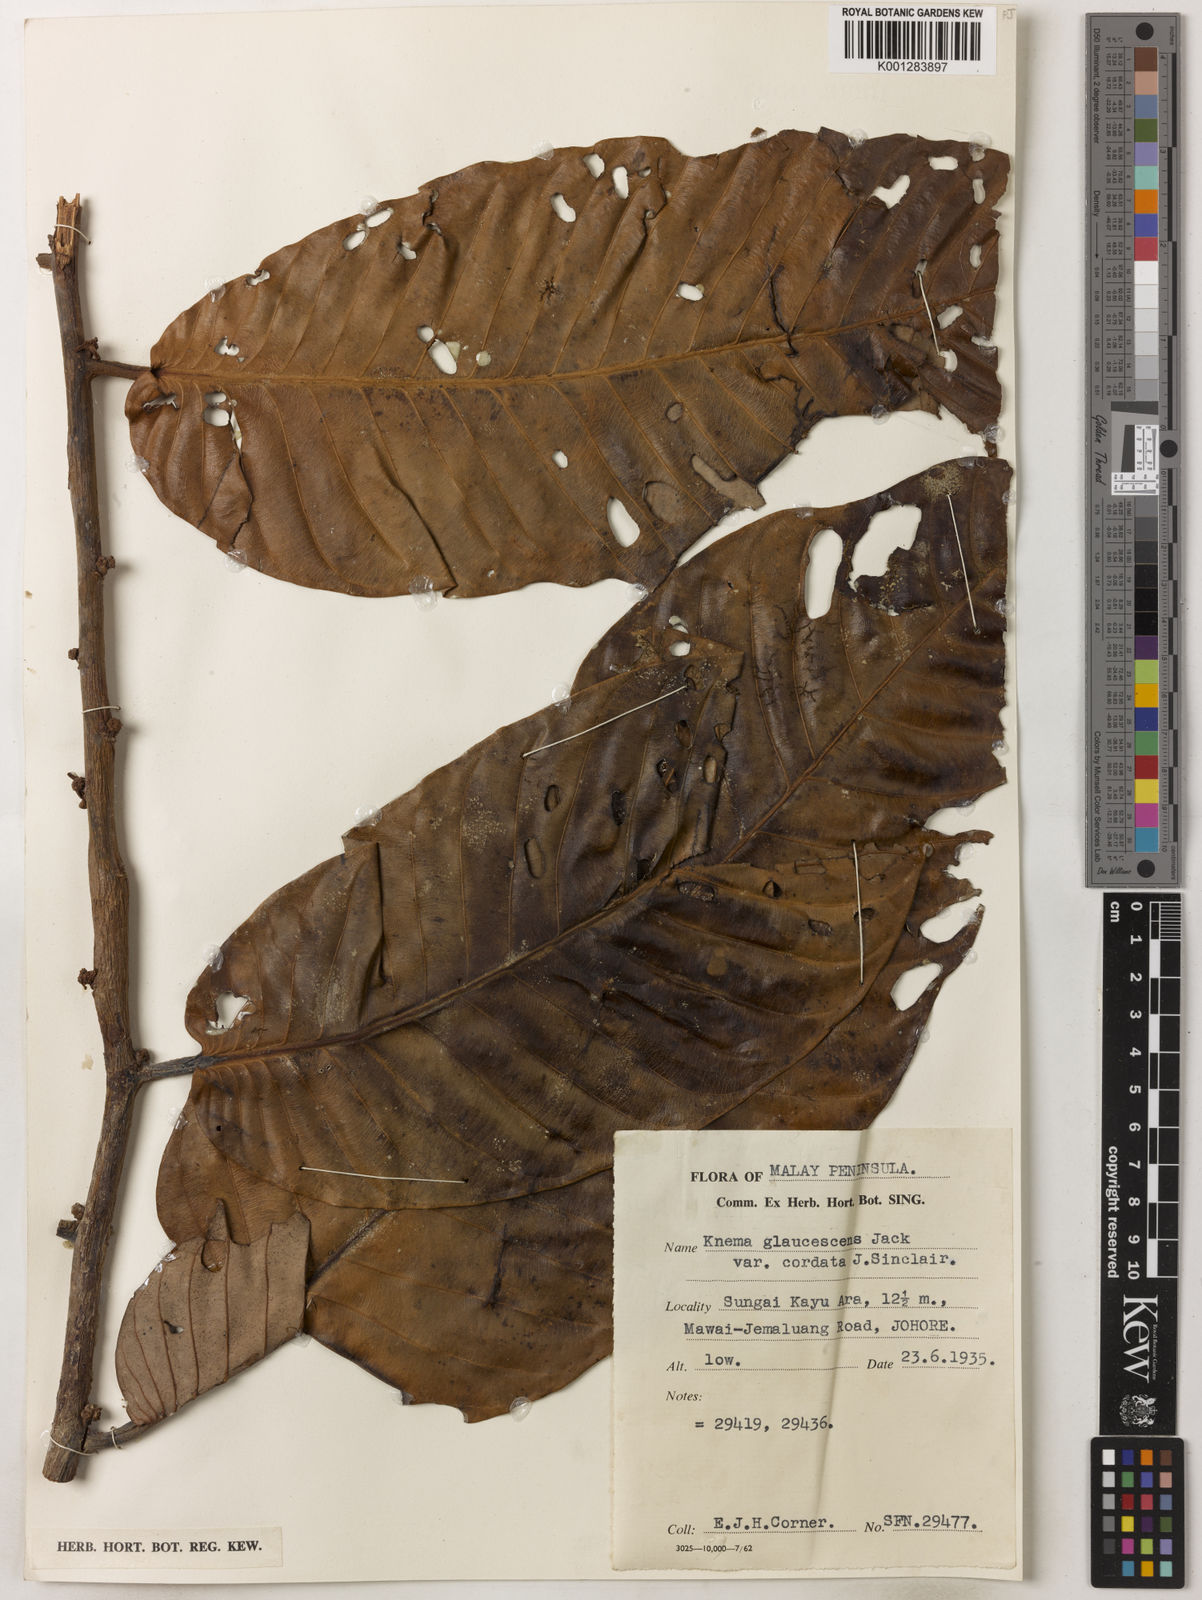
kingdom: Plantae
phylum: Tracheophyta
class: Magnoliopsida
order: Magnoliales
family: Myristicaceae
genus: Knema
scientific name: Knema
